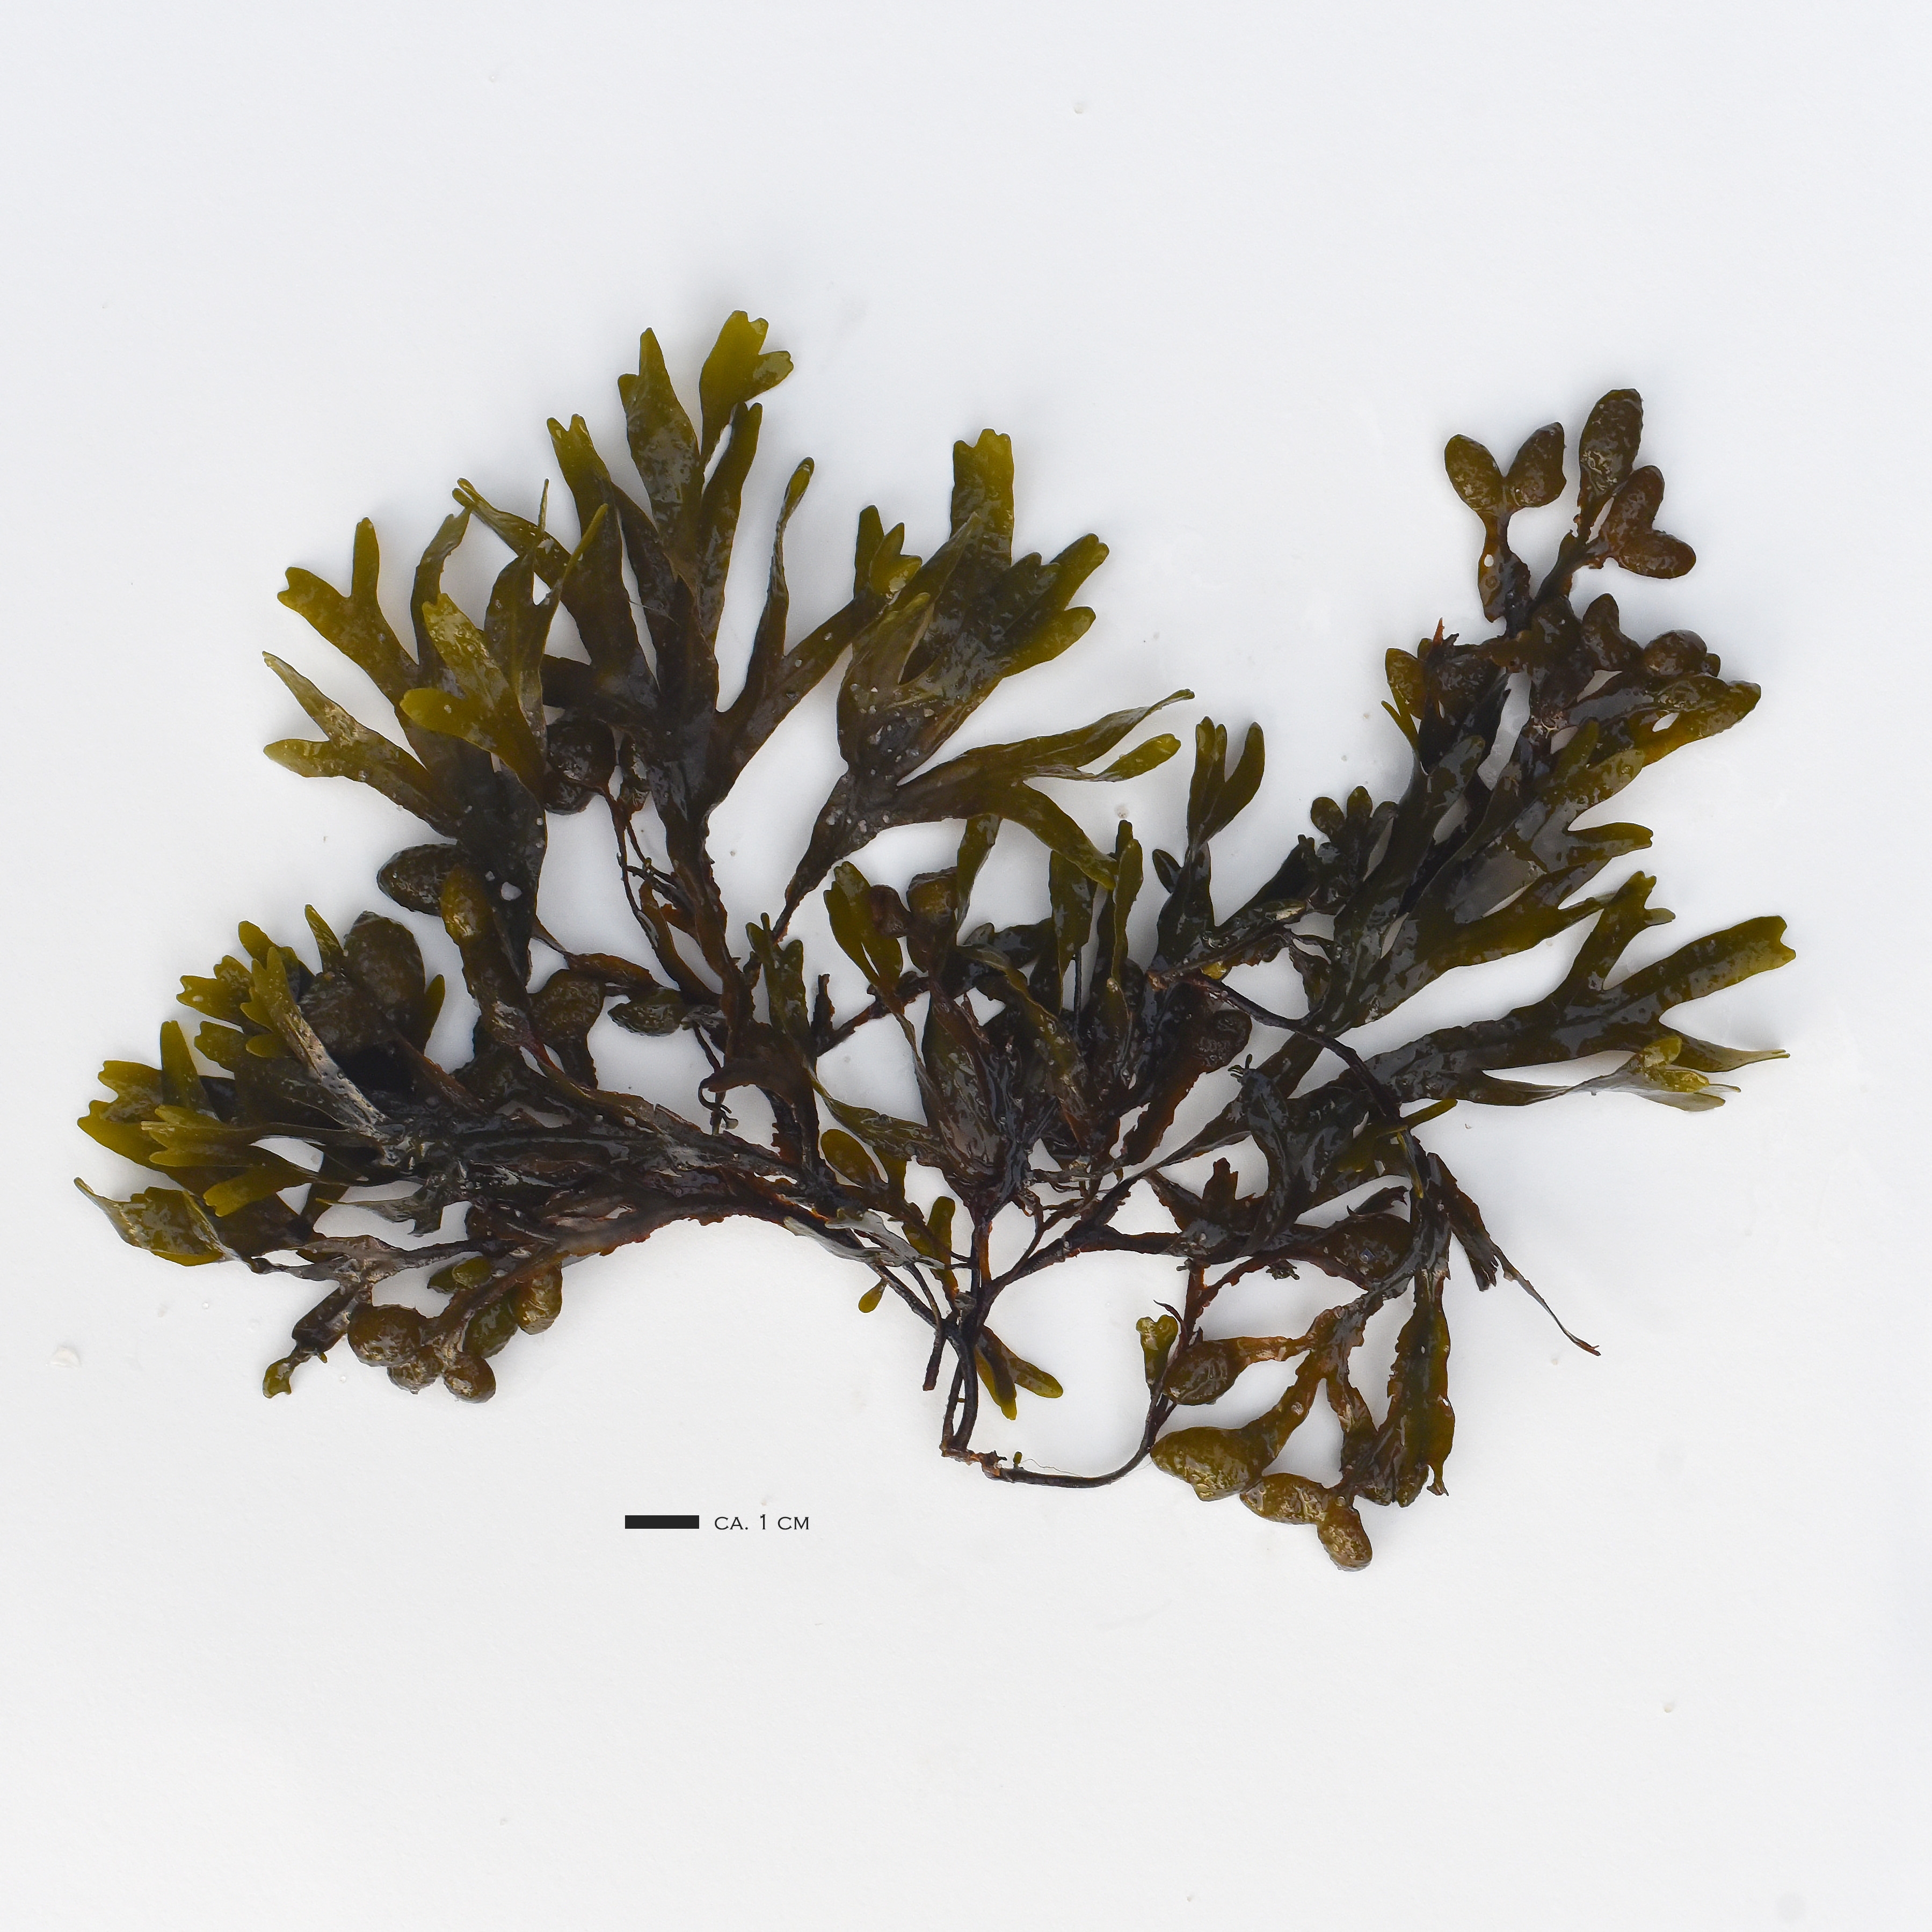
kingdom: Chromista
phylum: Ochrophyta
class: Phaeophyceae
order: Fucales
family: Fucaceae
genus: Fucus
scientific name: Fucus spiralis
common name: Rockweed
